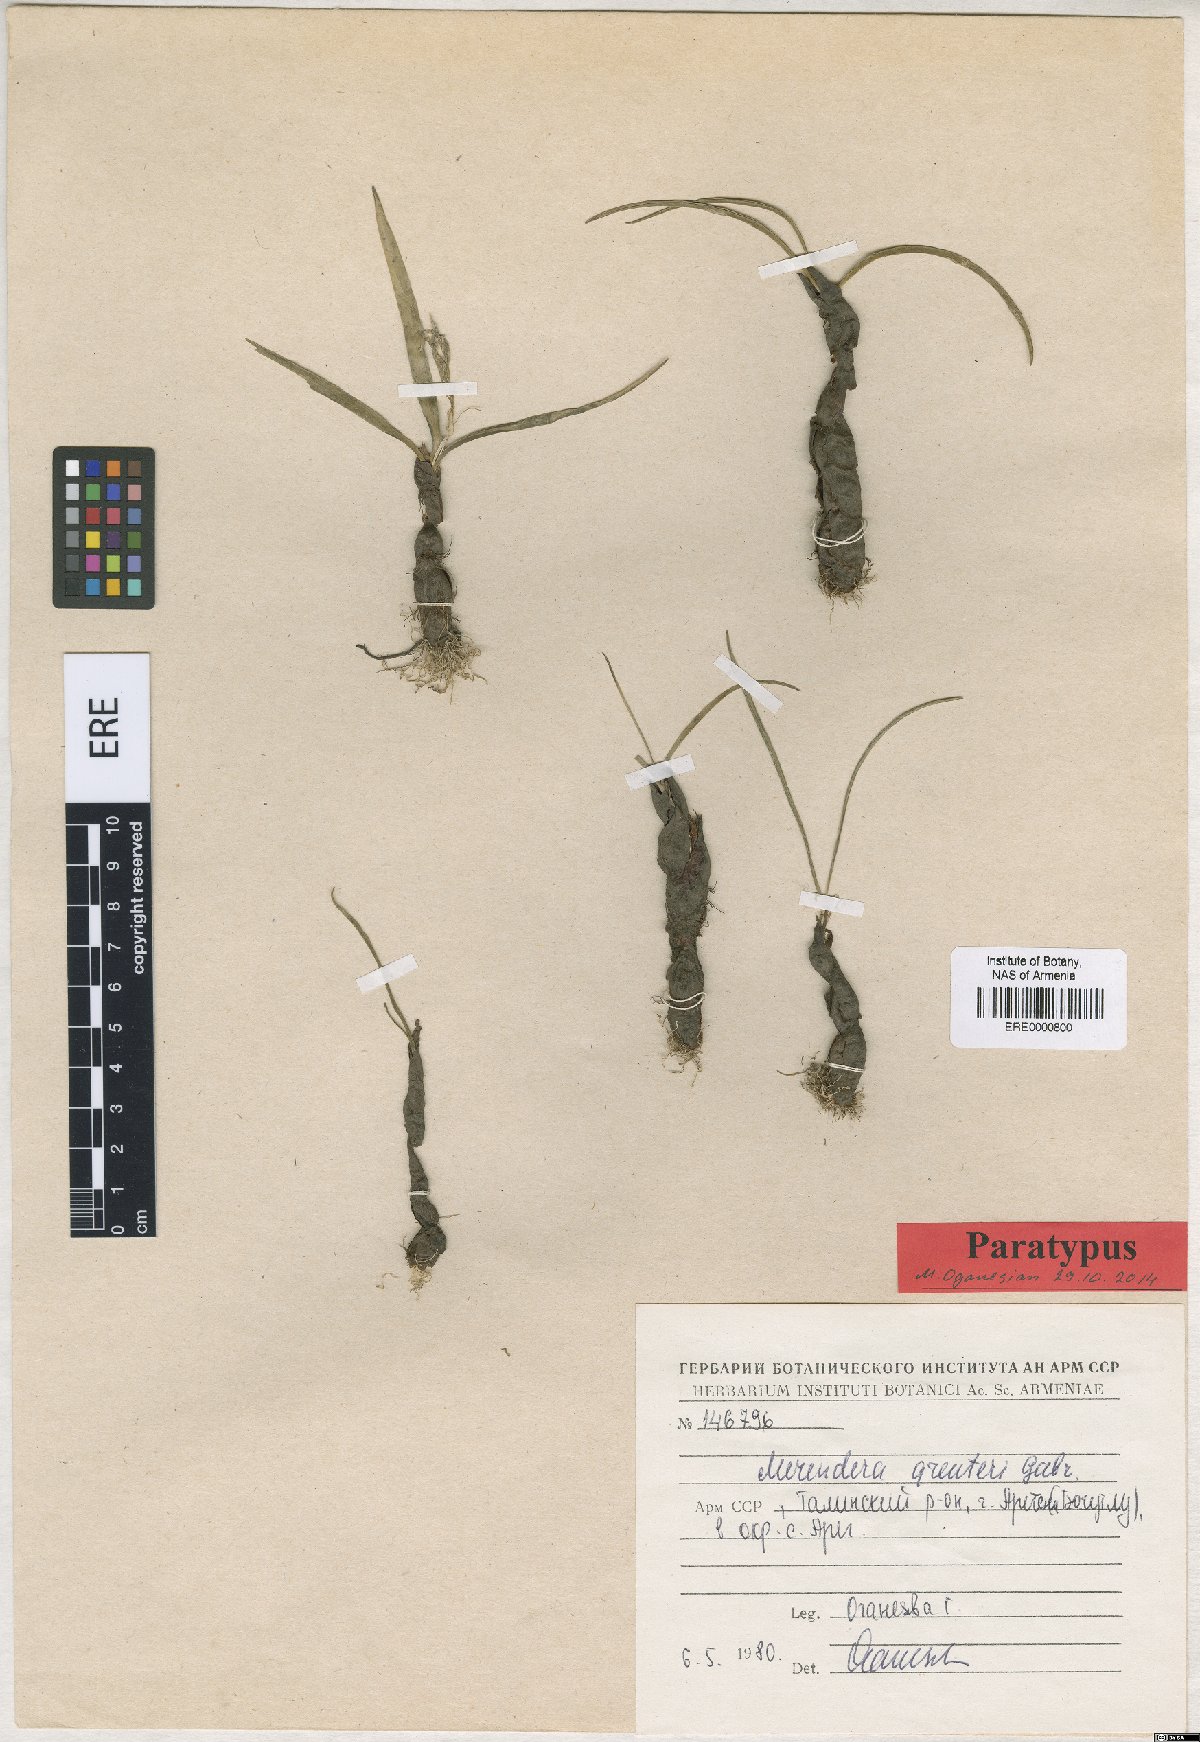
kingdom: Plantae
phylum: Tracheophyta
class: Liliopsida
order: Liliales
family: Colchicaceae
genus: Colchicum
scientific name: Colchicum trigynum
